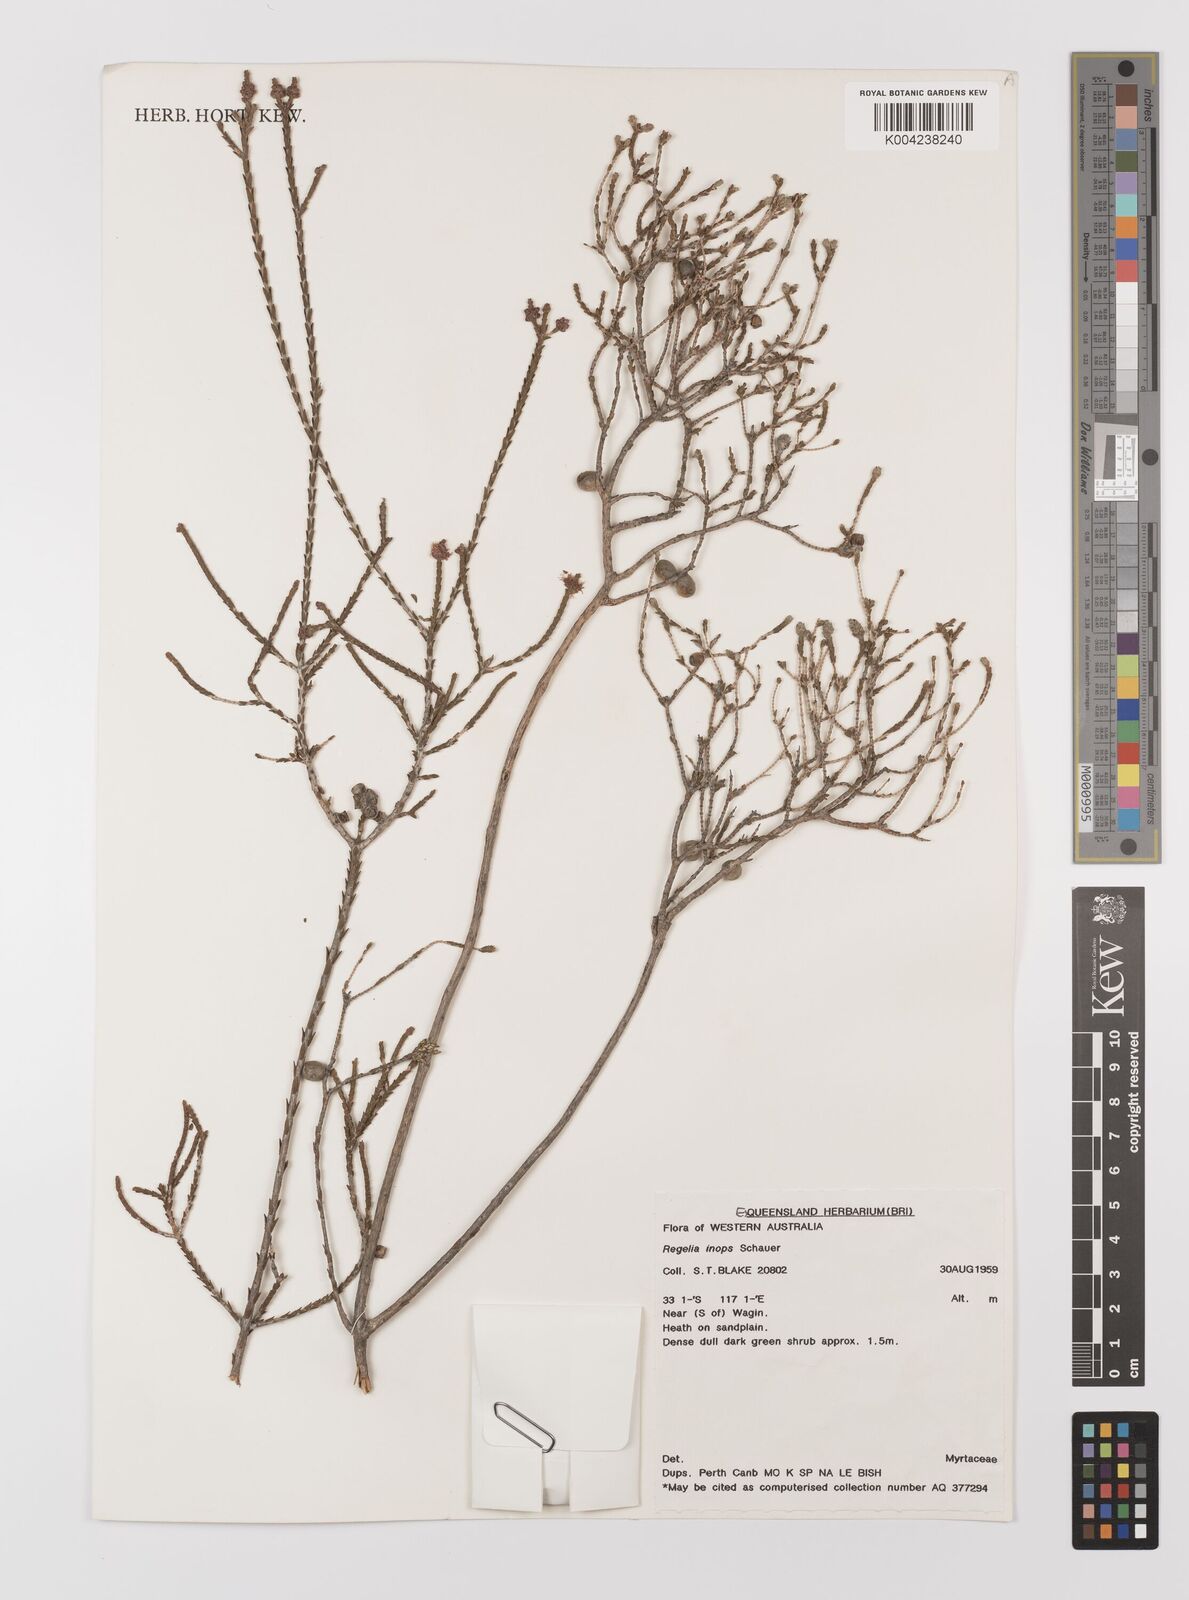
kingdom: Plantae
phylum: Tracheophyta
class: Magnoliopsida
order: Myrtales
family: Myrtaceae
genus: Melaleuca
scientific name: Melaleuca inops
